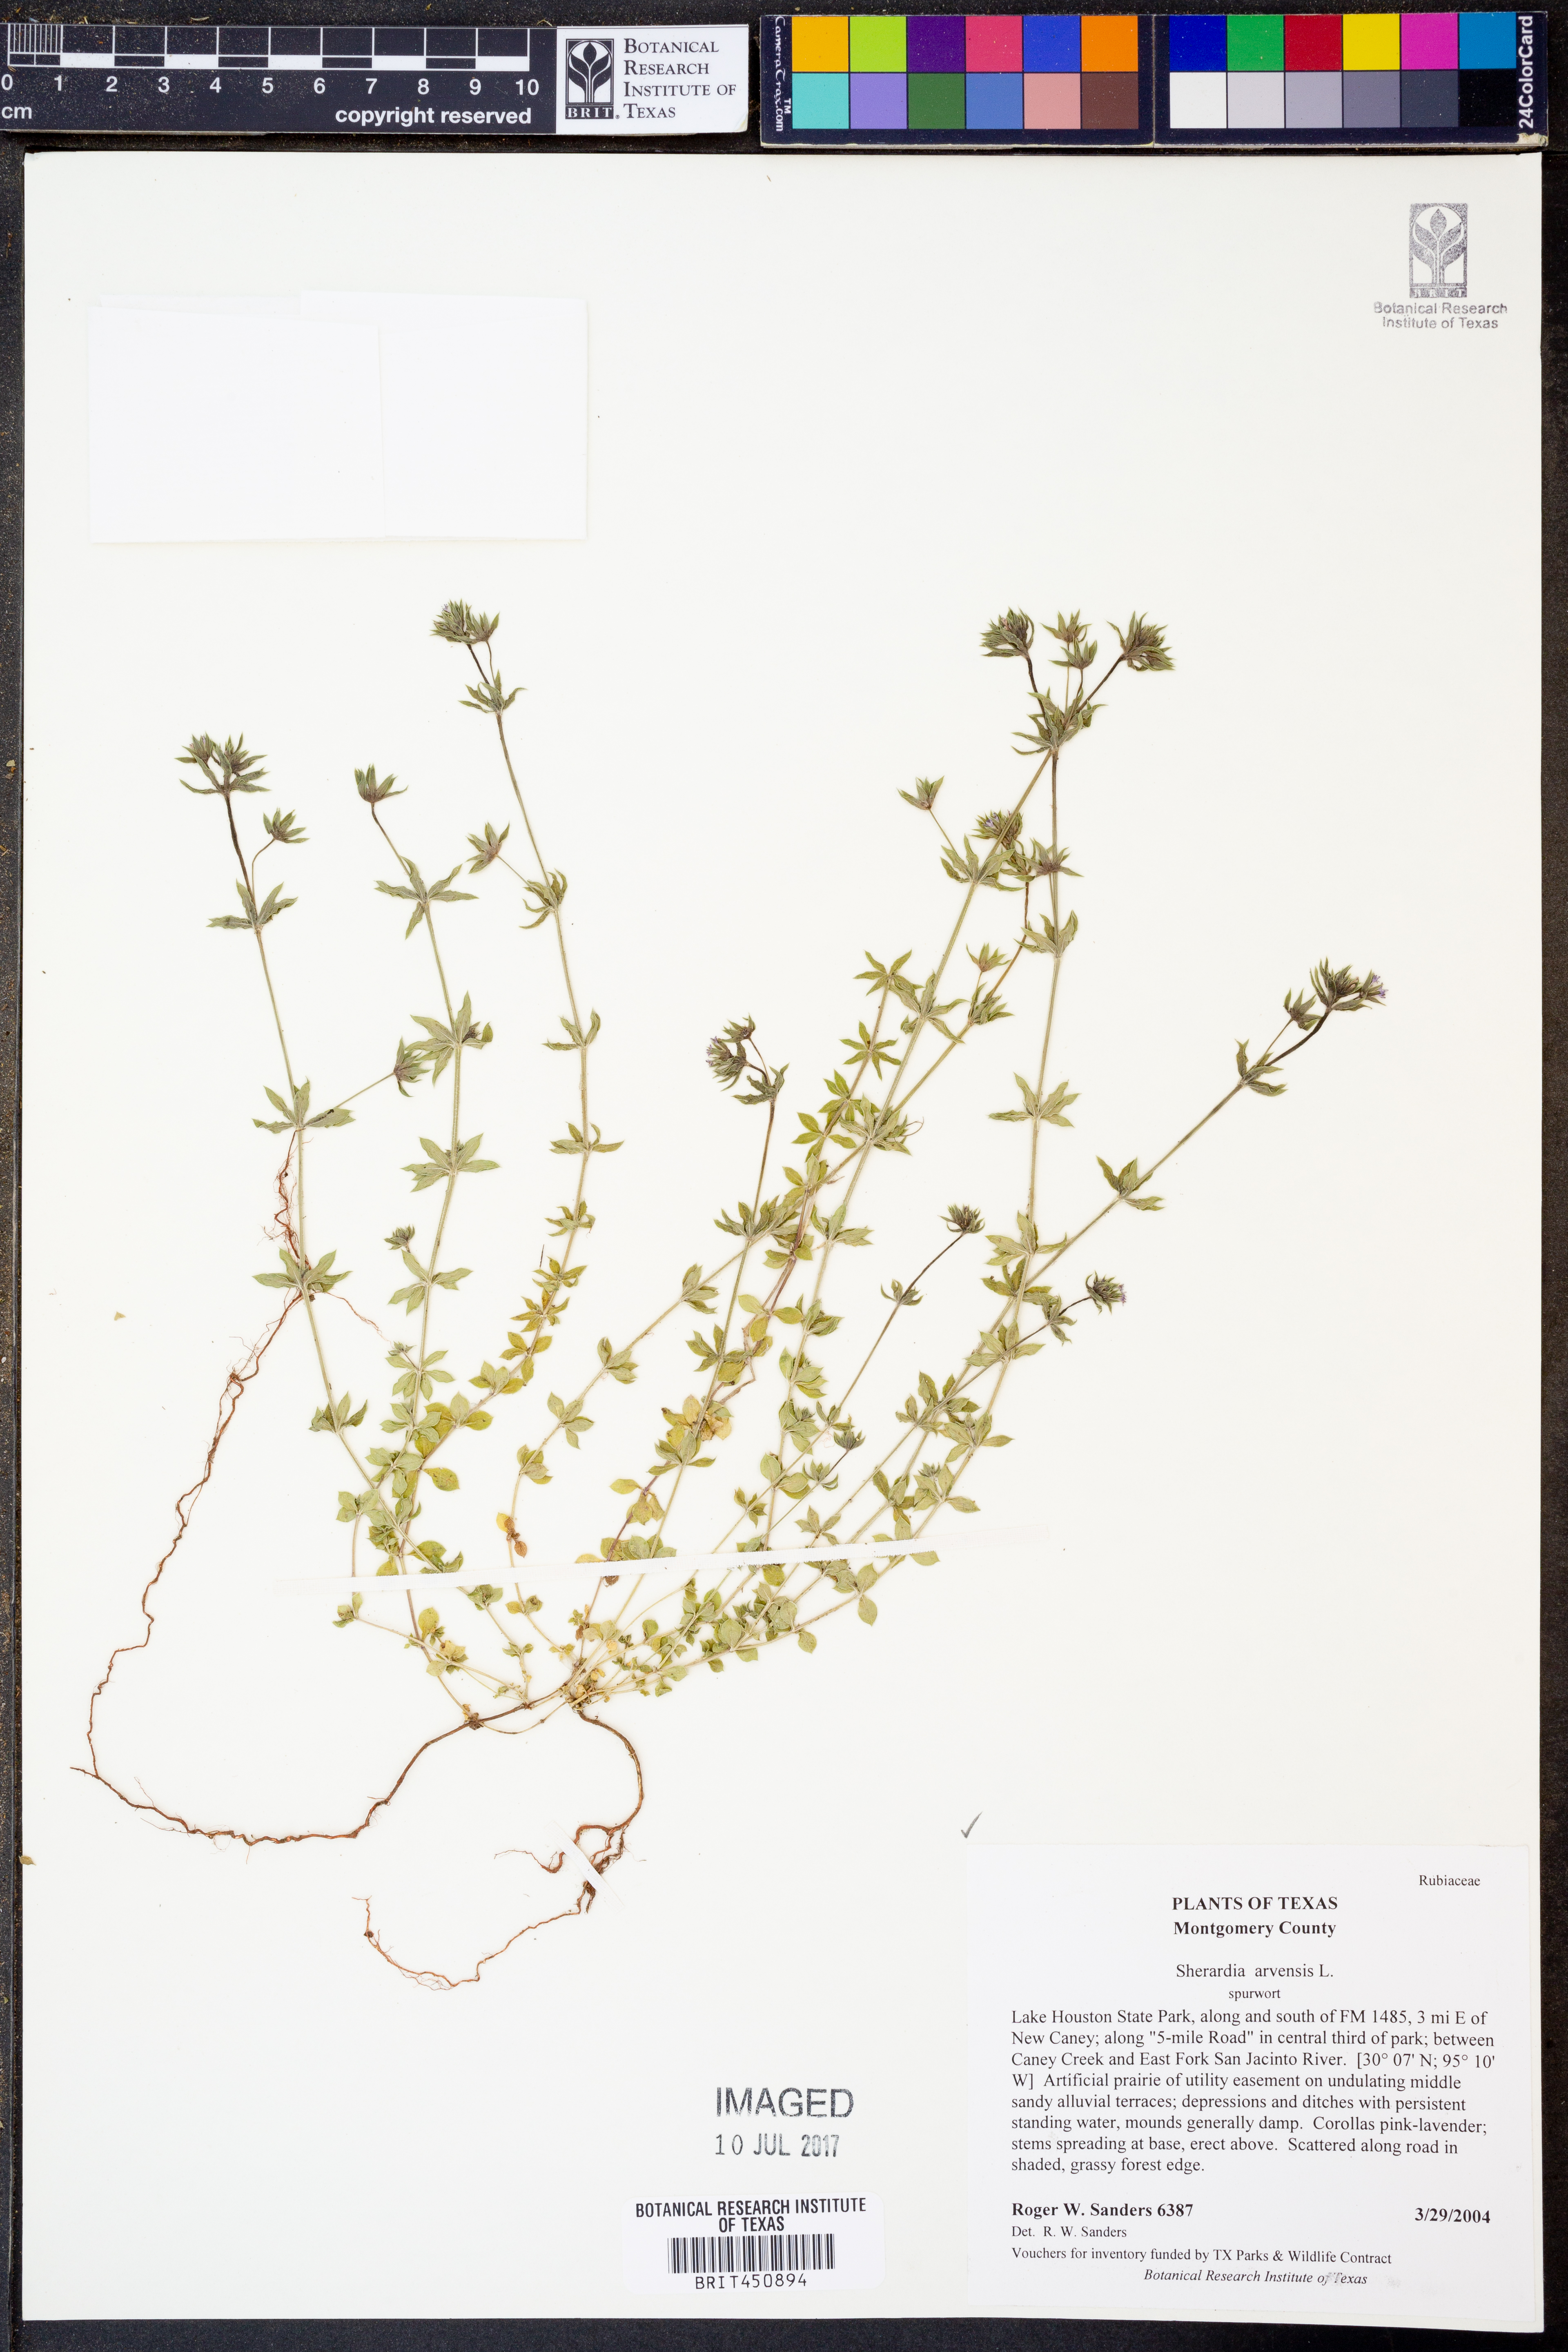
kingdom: Plantae
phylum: Tracheophyta
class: Magnoliopsida
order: Gentianales
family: Rubiaceae
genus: Sherardia
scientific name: Sherardia arvensis
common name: Field madder
